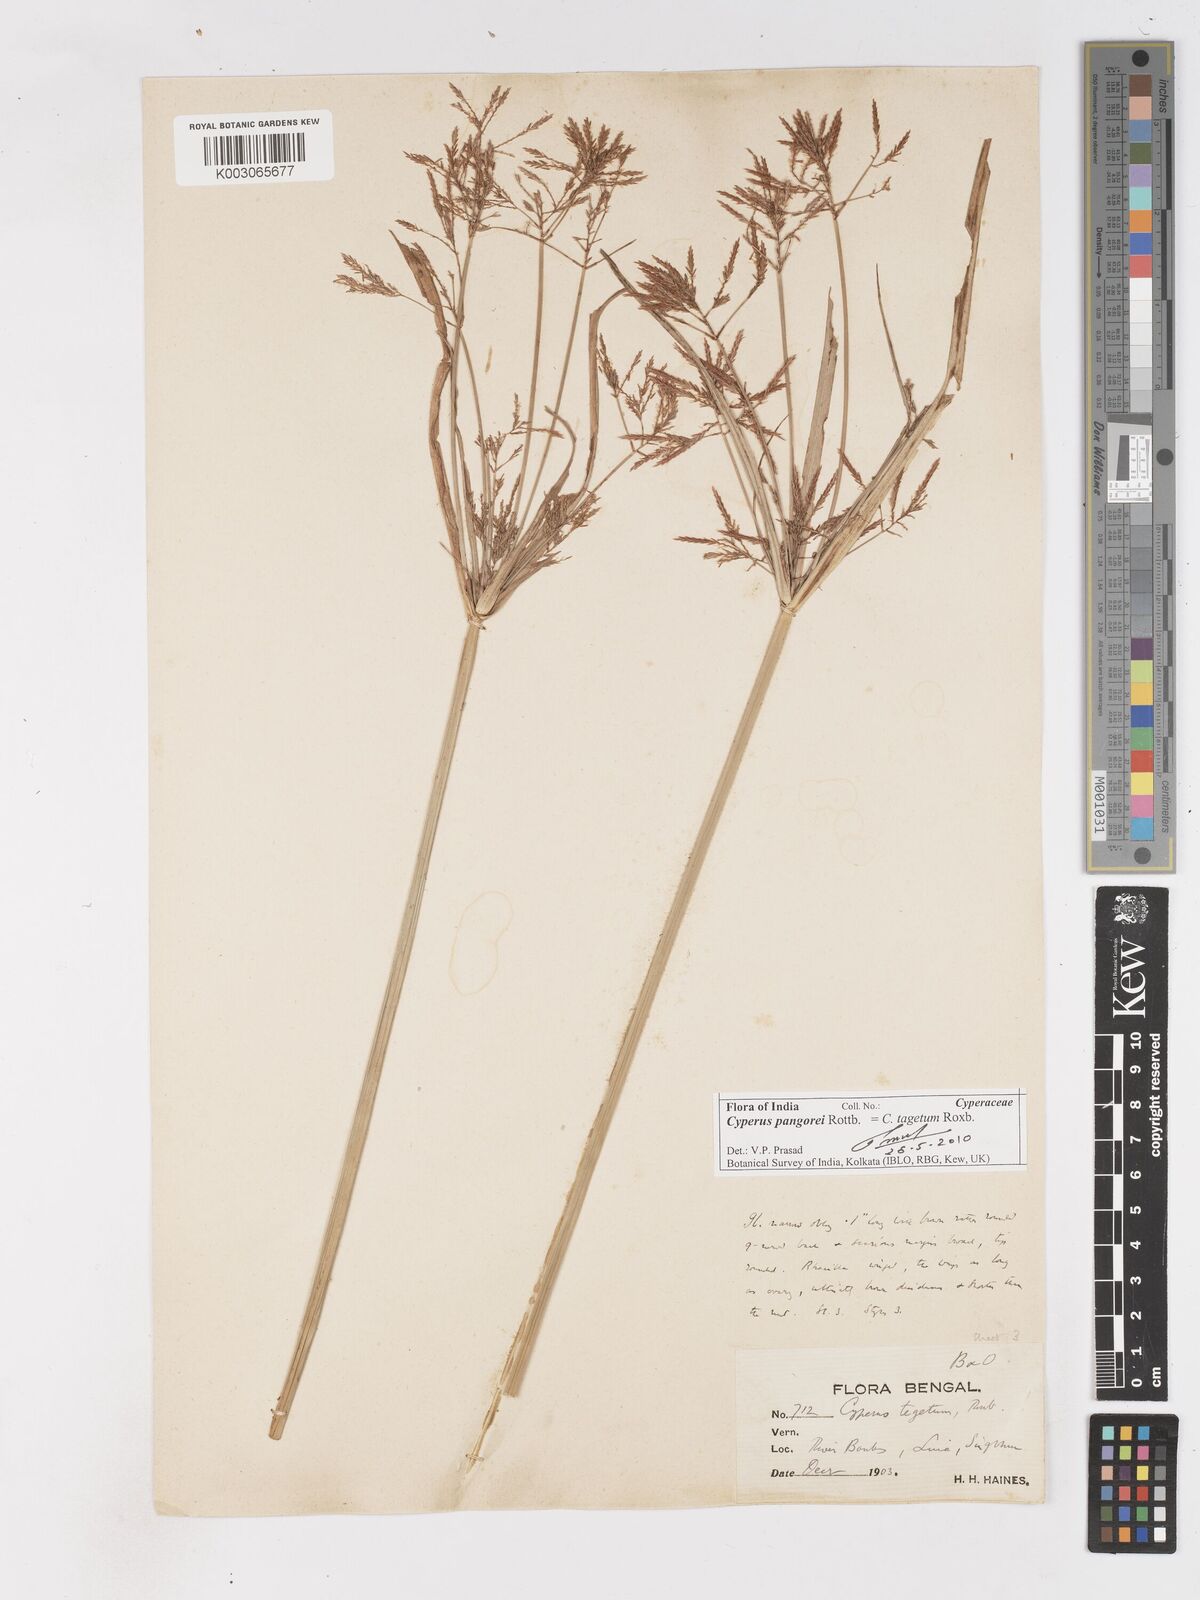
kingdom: Plantae
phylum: Tracheophyta
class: Liliopsida
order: Poales
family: Cyperaceae
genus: Cyperus
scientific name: Cyperus pangorei
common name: Mat sedge
